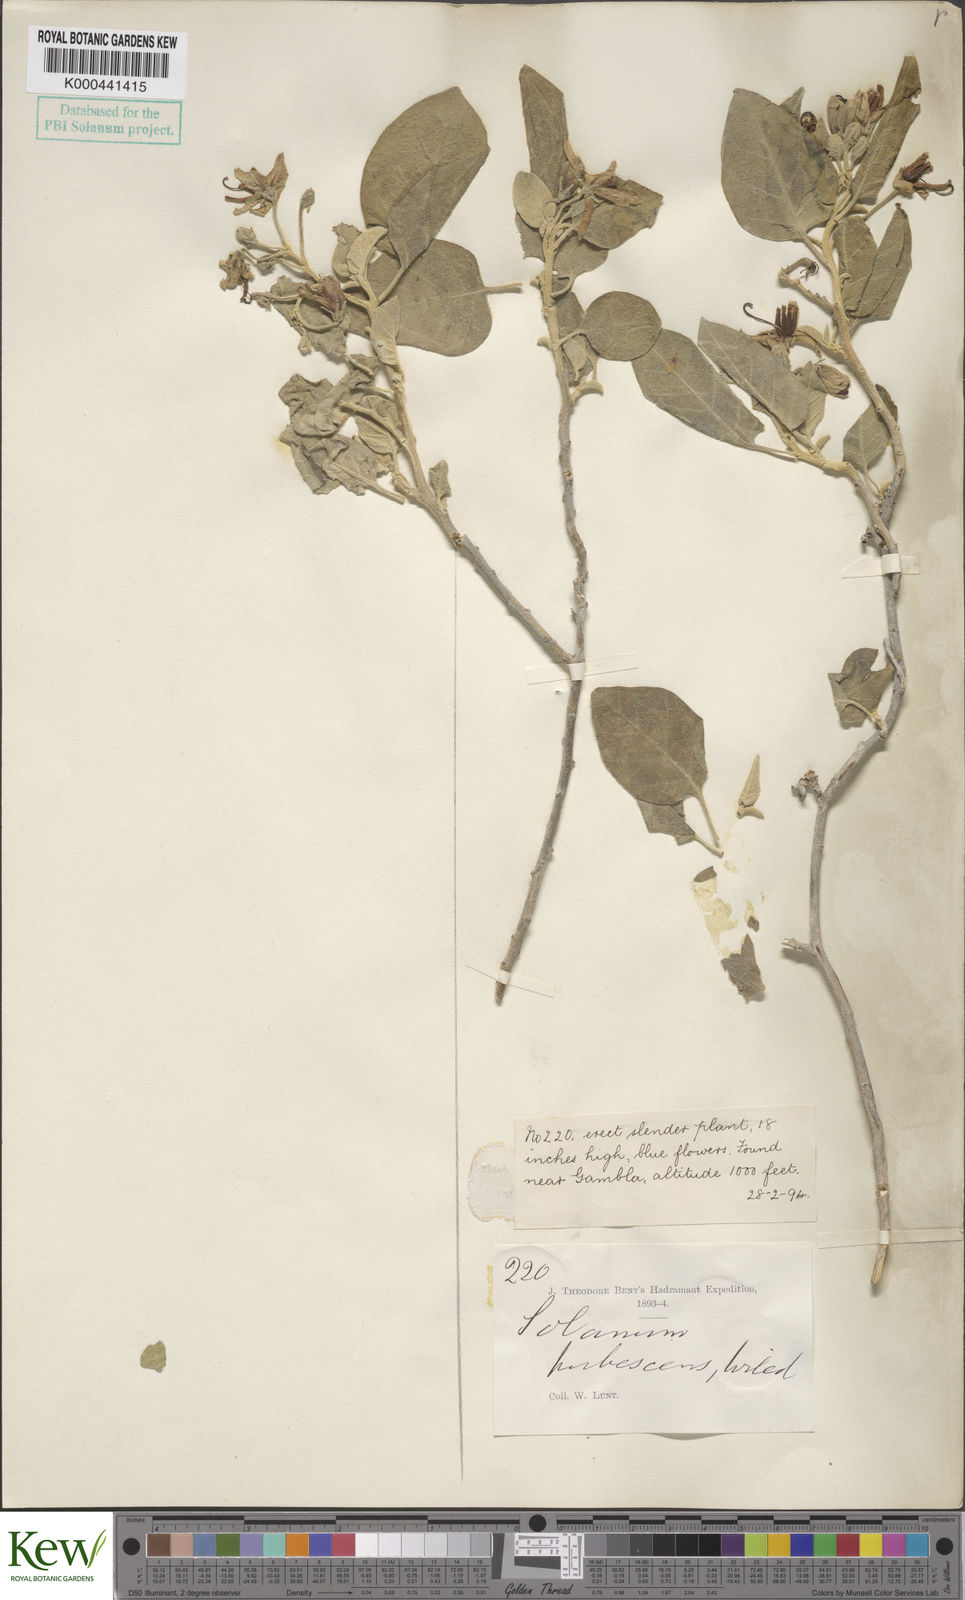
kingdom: Plantae
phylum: Tracheophyta
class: Magnoliopsida
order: Solanales
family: Solanaceae
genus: Solanum
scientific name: Solanum pubescens
